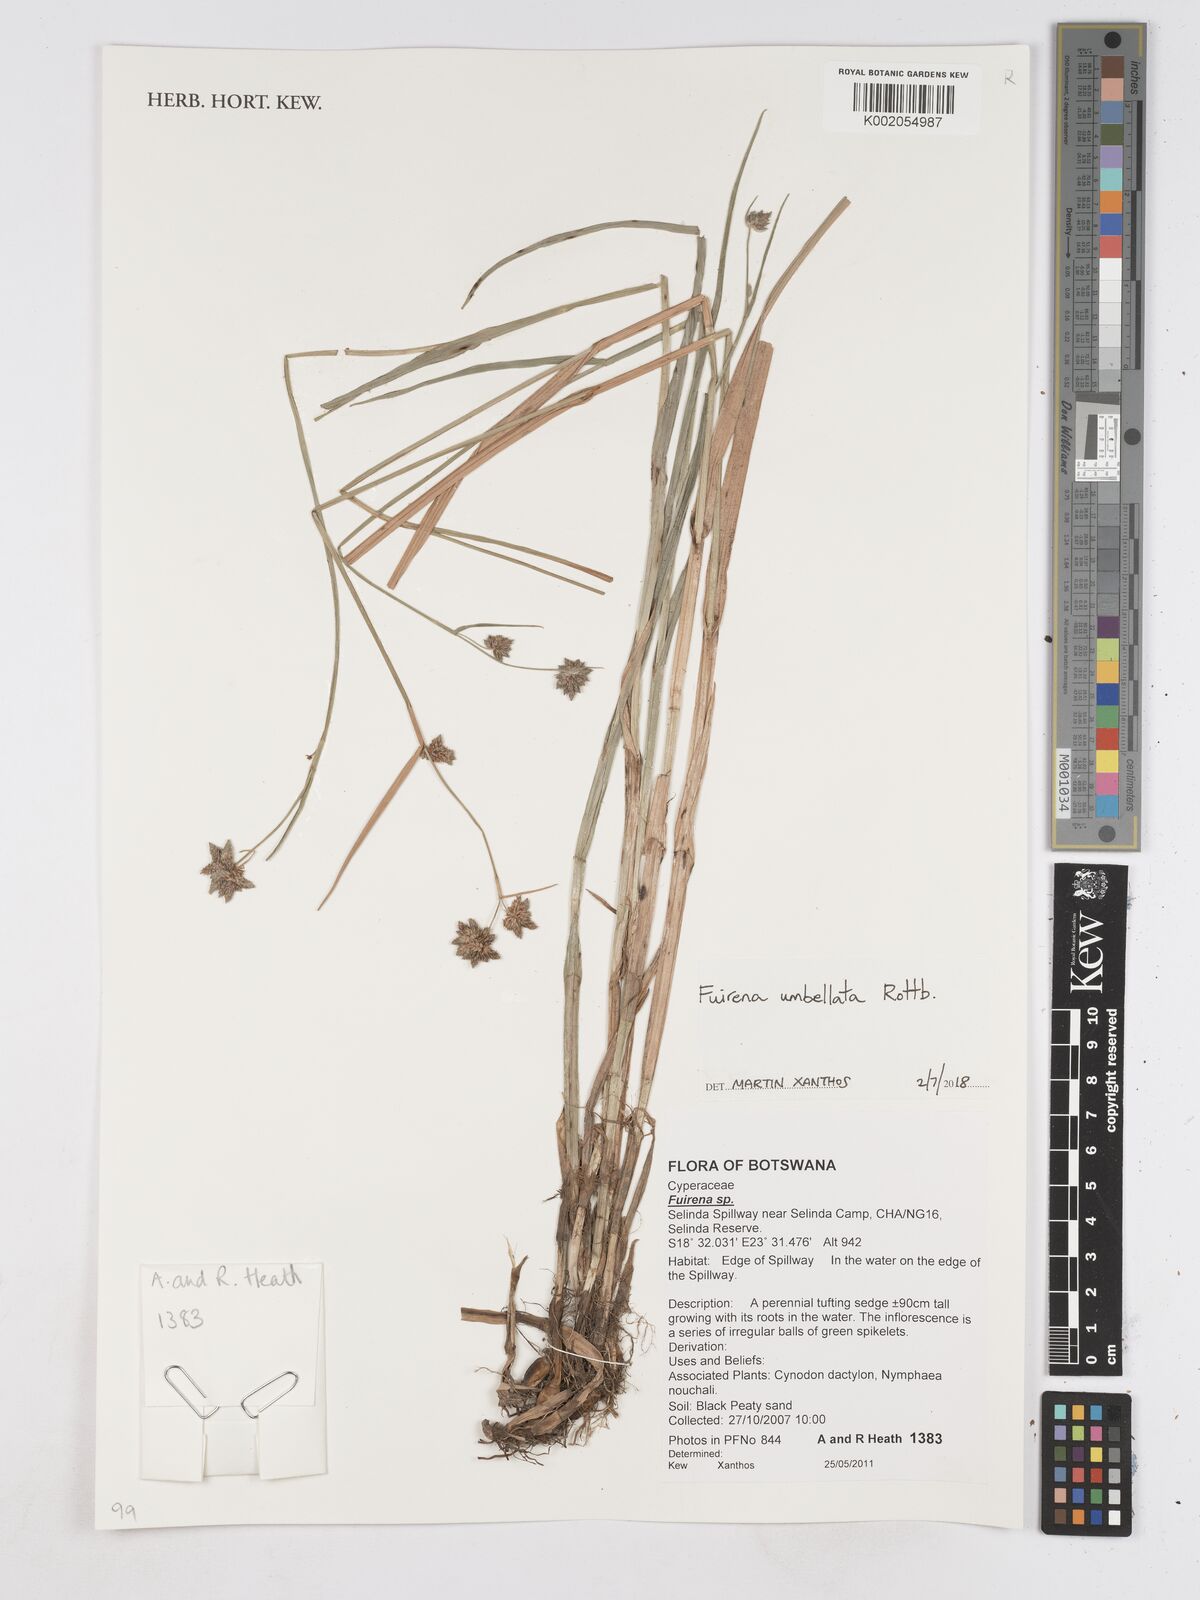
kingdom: Plantae
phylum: Tracheophyta
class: Liliopsida
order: Poales
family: Cyperaceae
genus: Fuirena
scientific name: Fuirena umbellata
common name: Yefen
